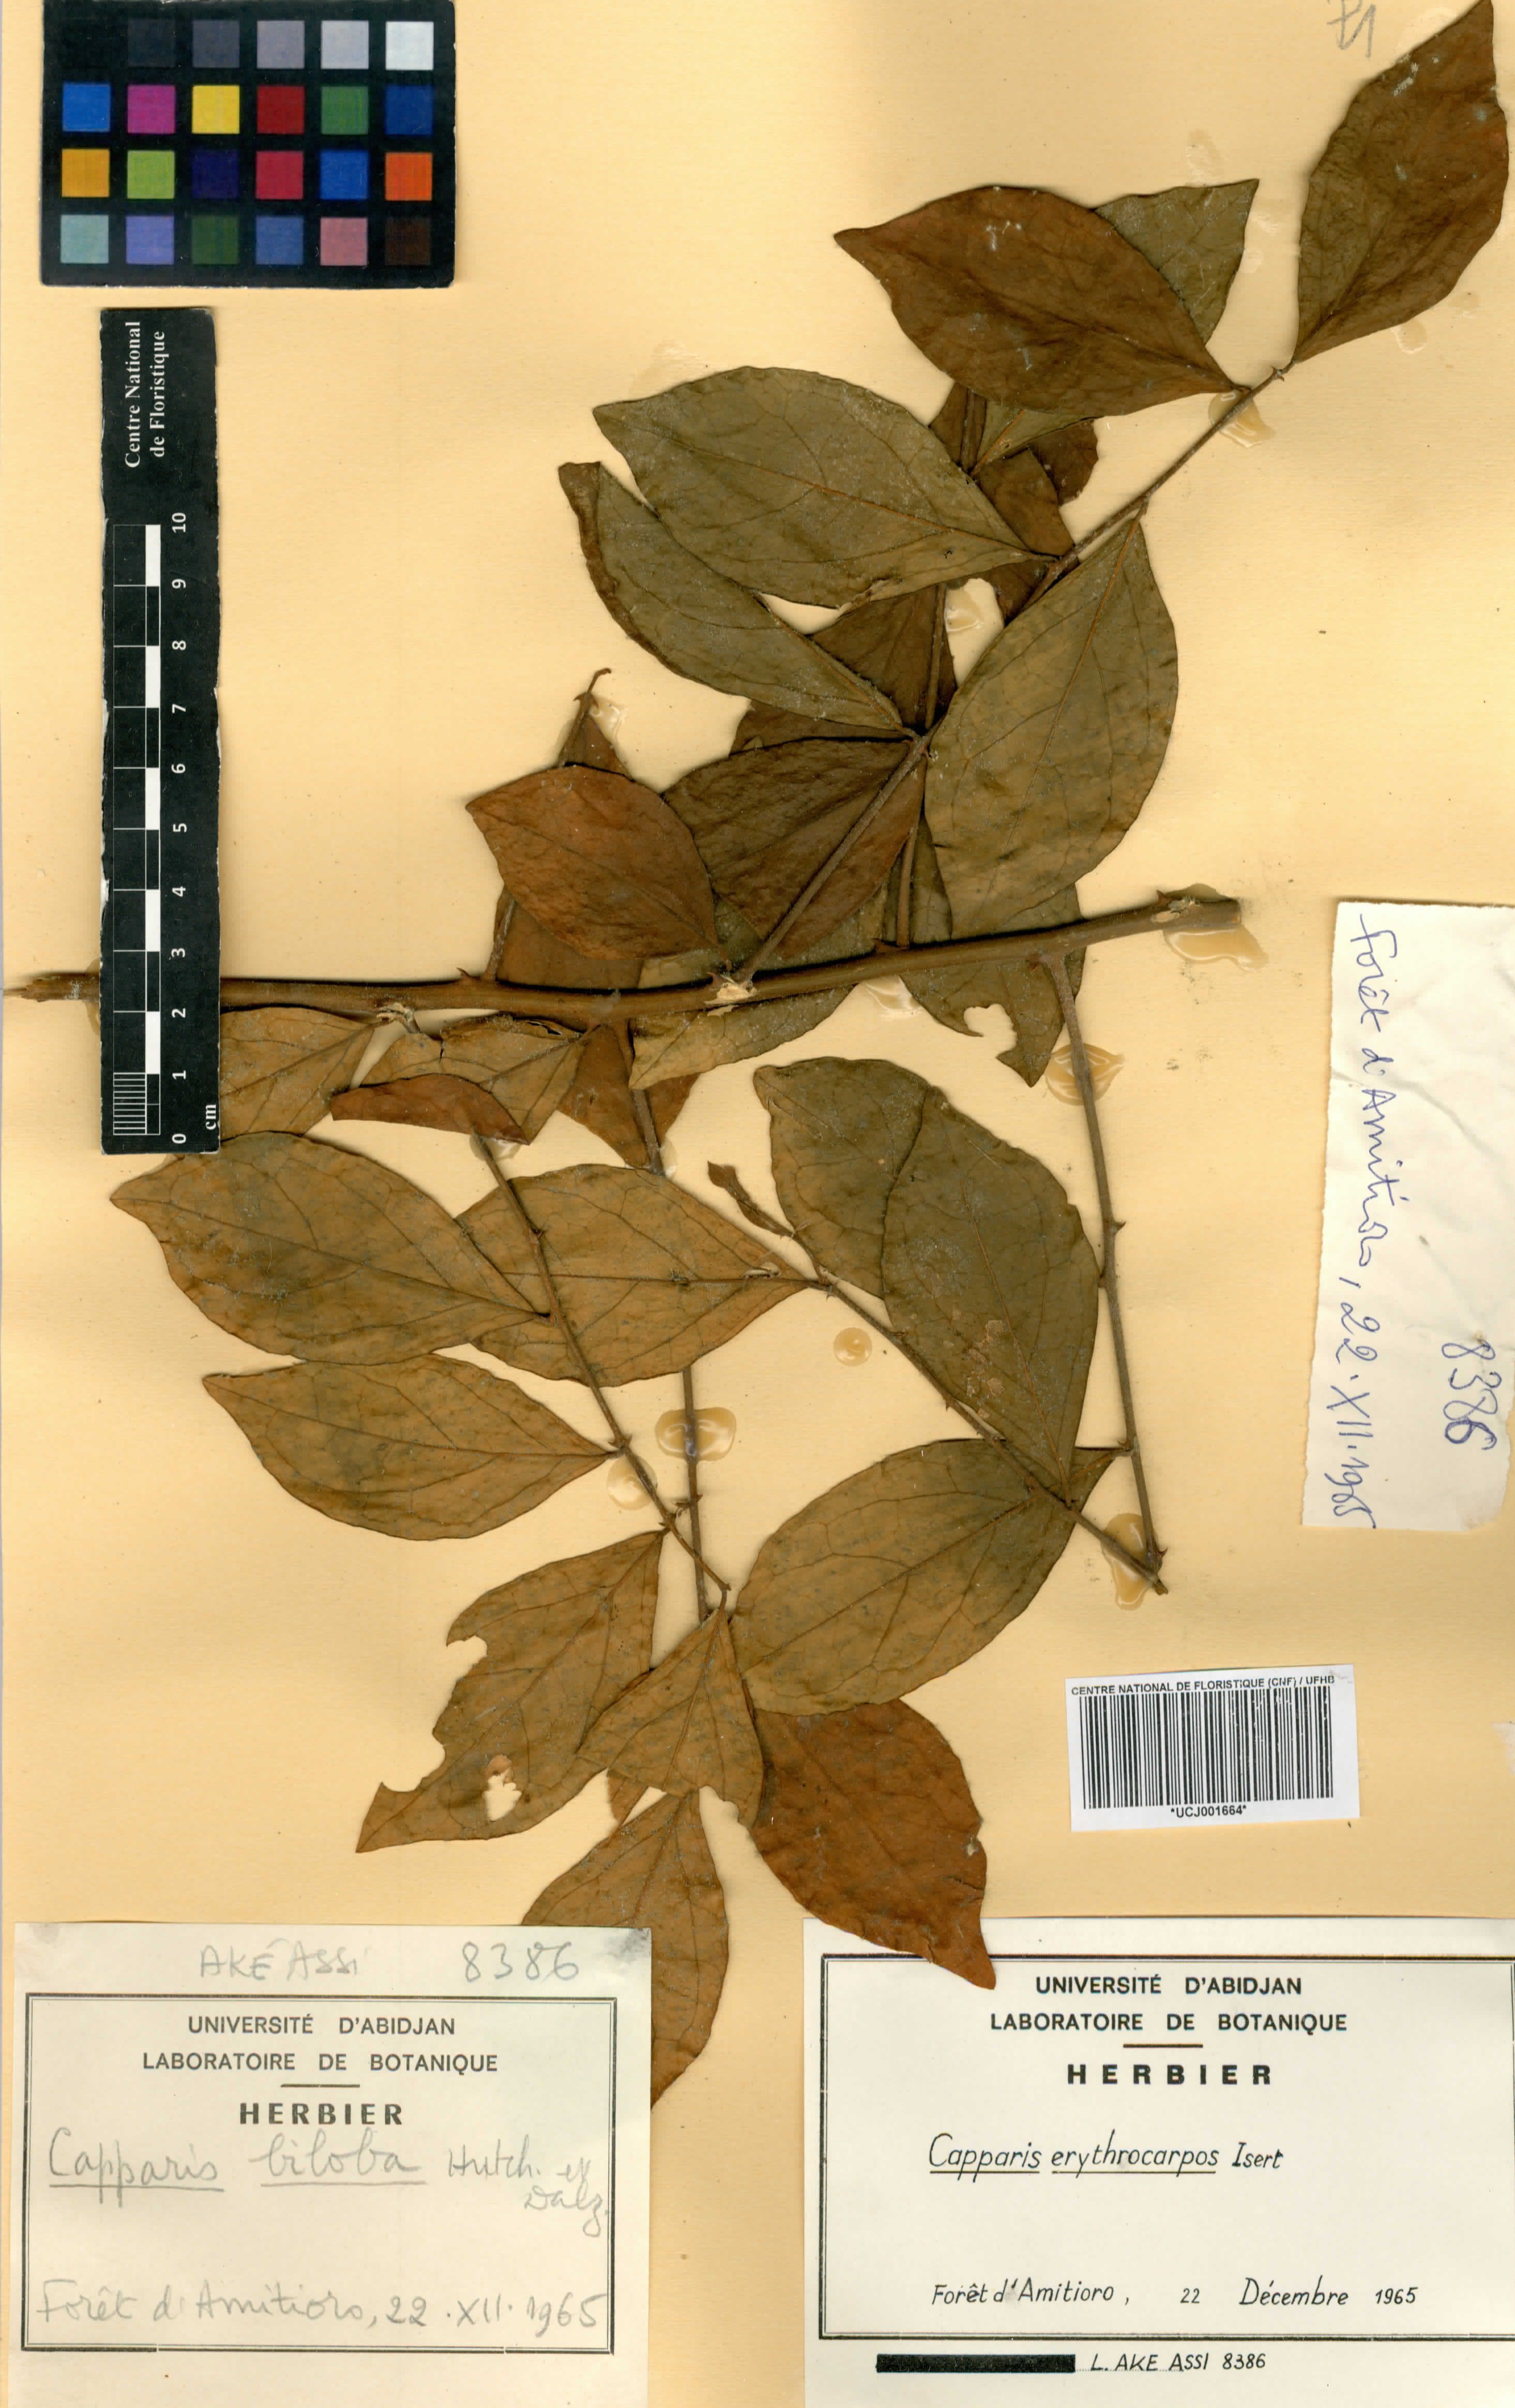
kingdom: Plantae
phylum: Tracheophyta
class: Magnoliopsida
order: Brassicales
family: Capparaceae
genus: Capparis
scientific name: Capparis erythrocarpos
